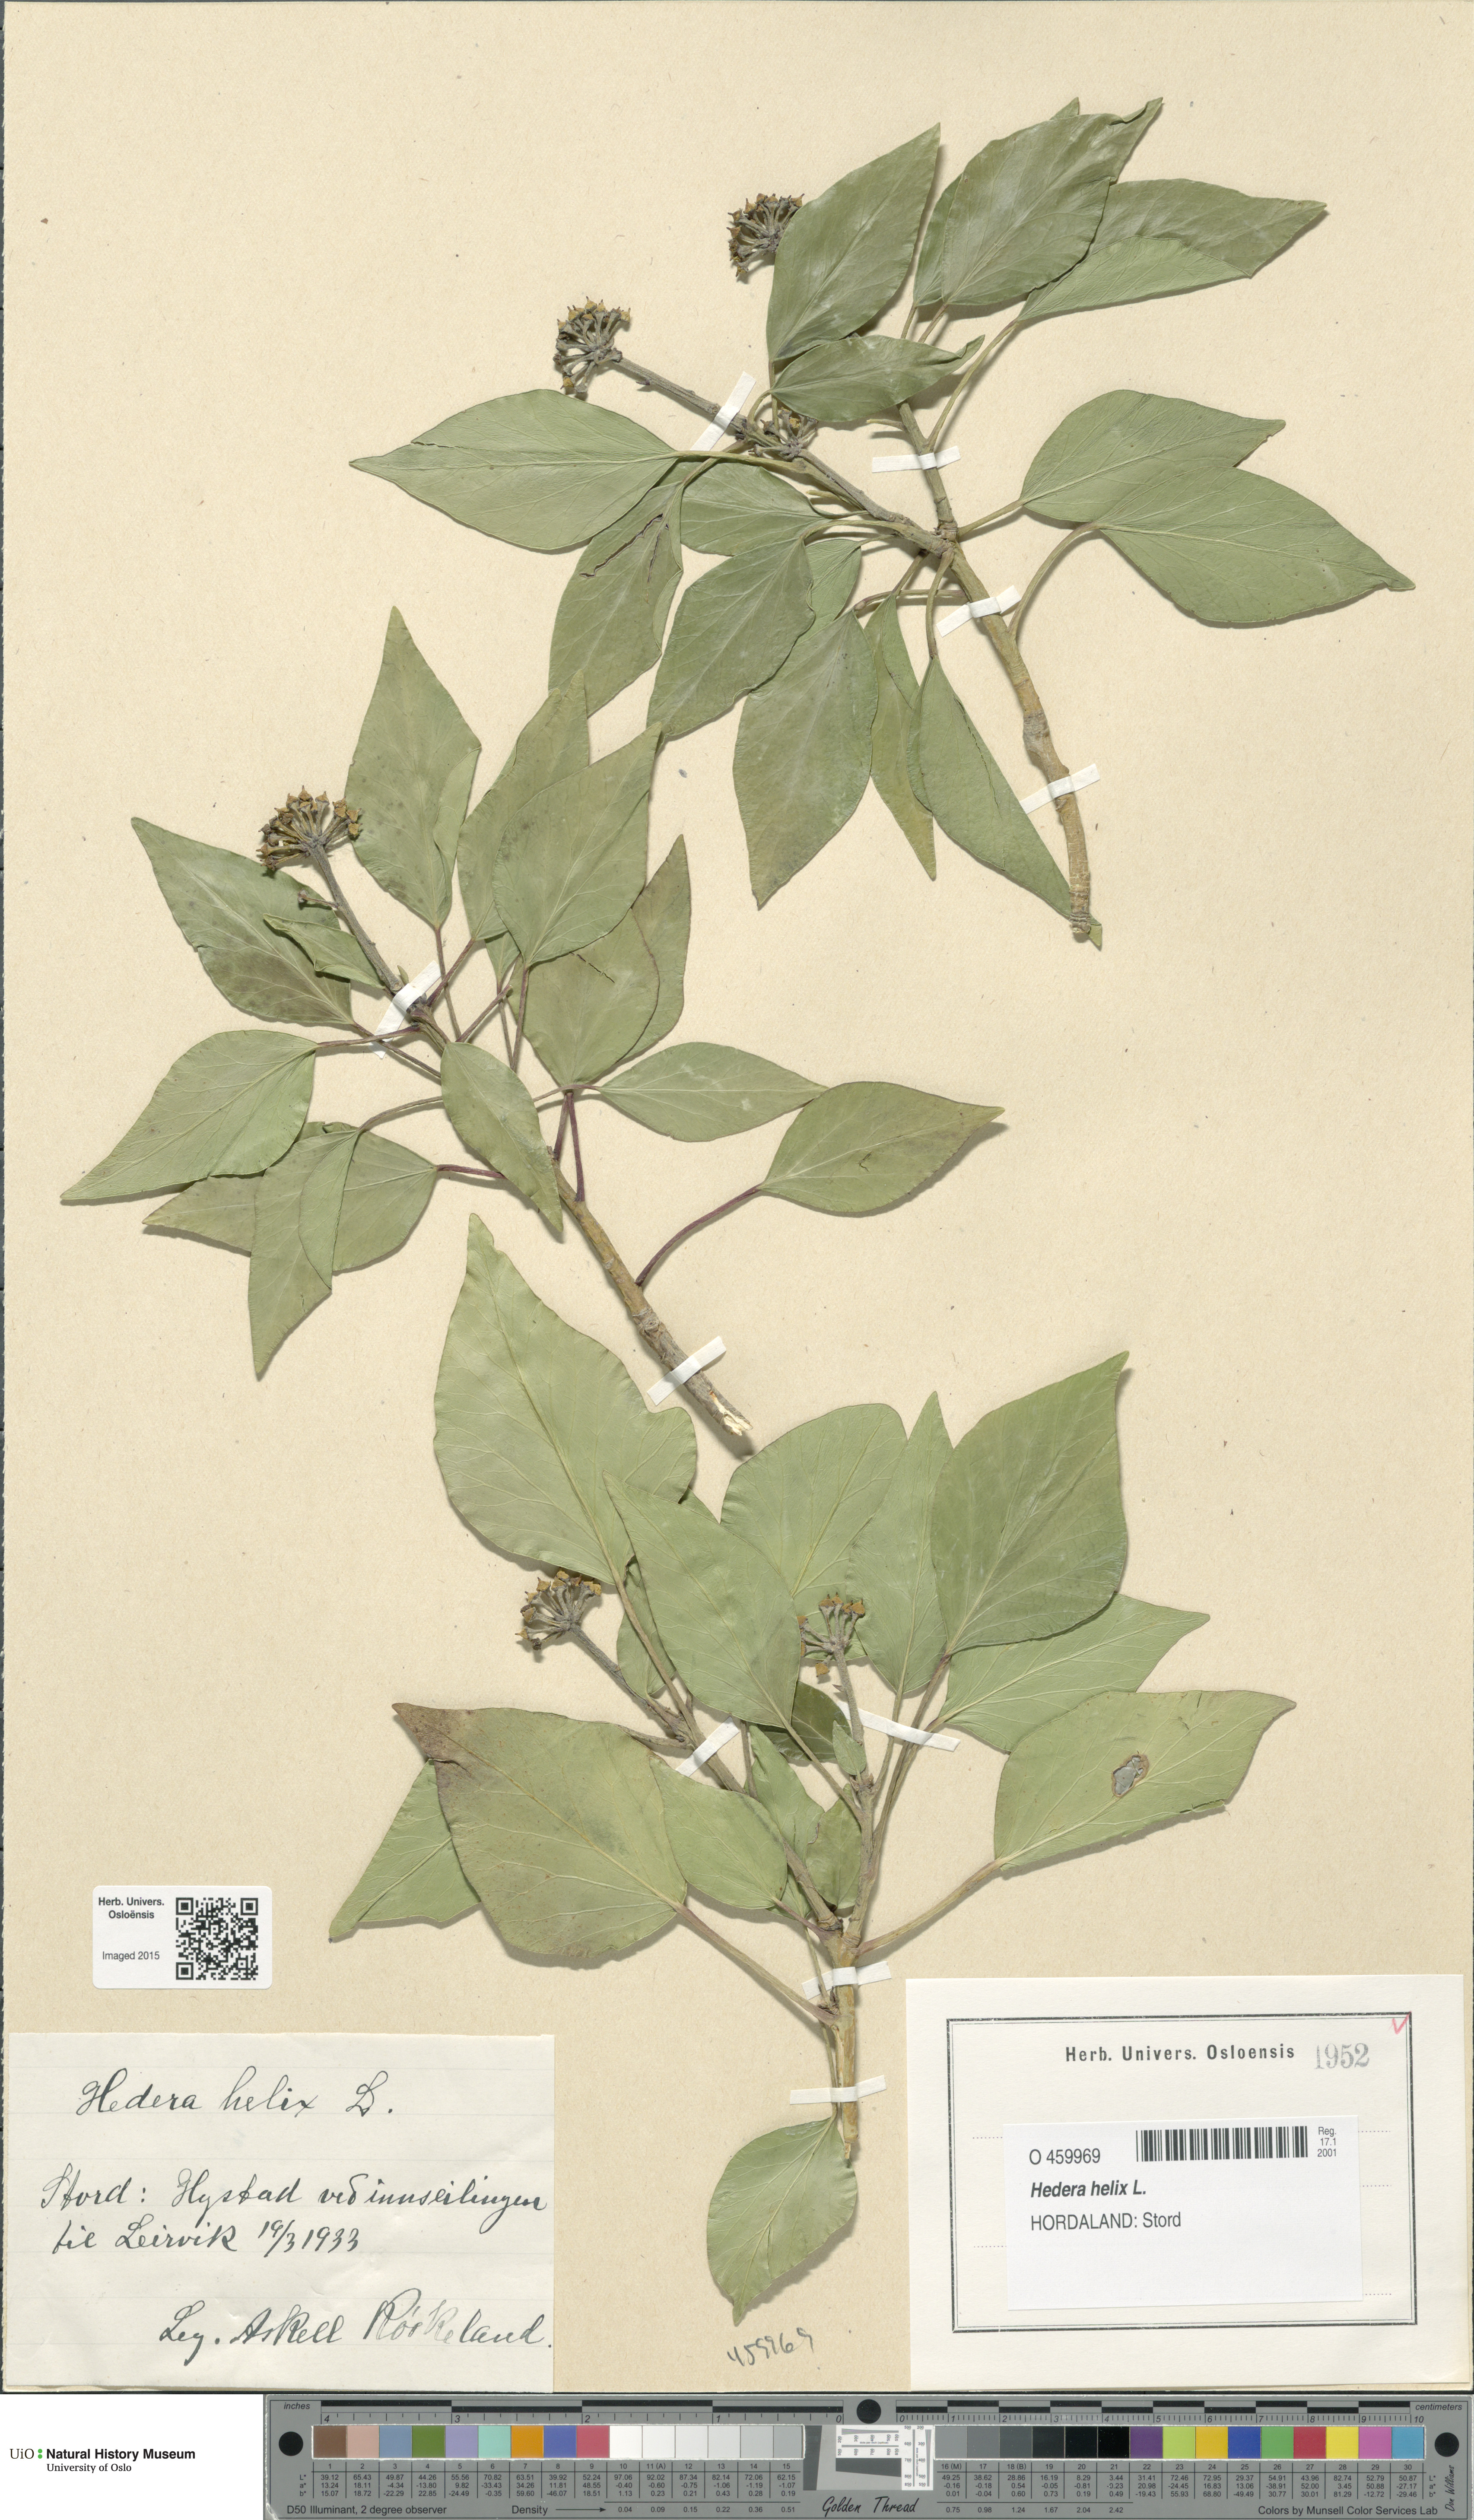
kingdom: Plantae
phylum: Tracheophyta
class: Magnoliopsida
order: Apiales
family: Araliaceae
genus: Hedera
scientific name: Hedera helix
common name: Ivy
